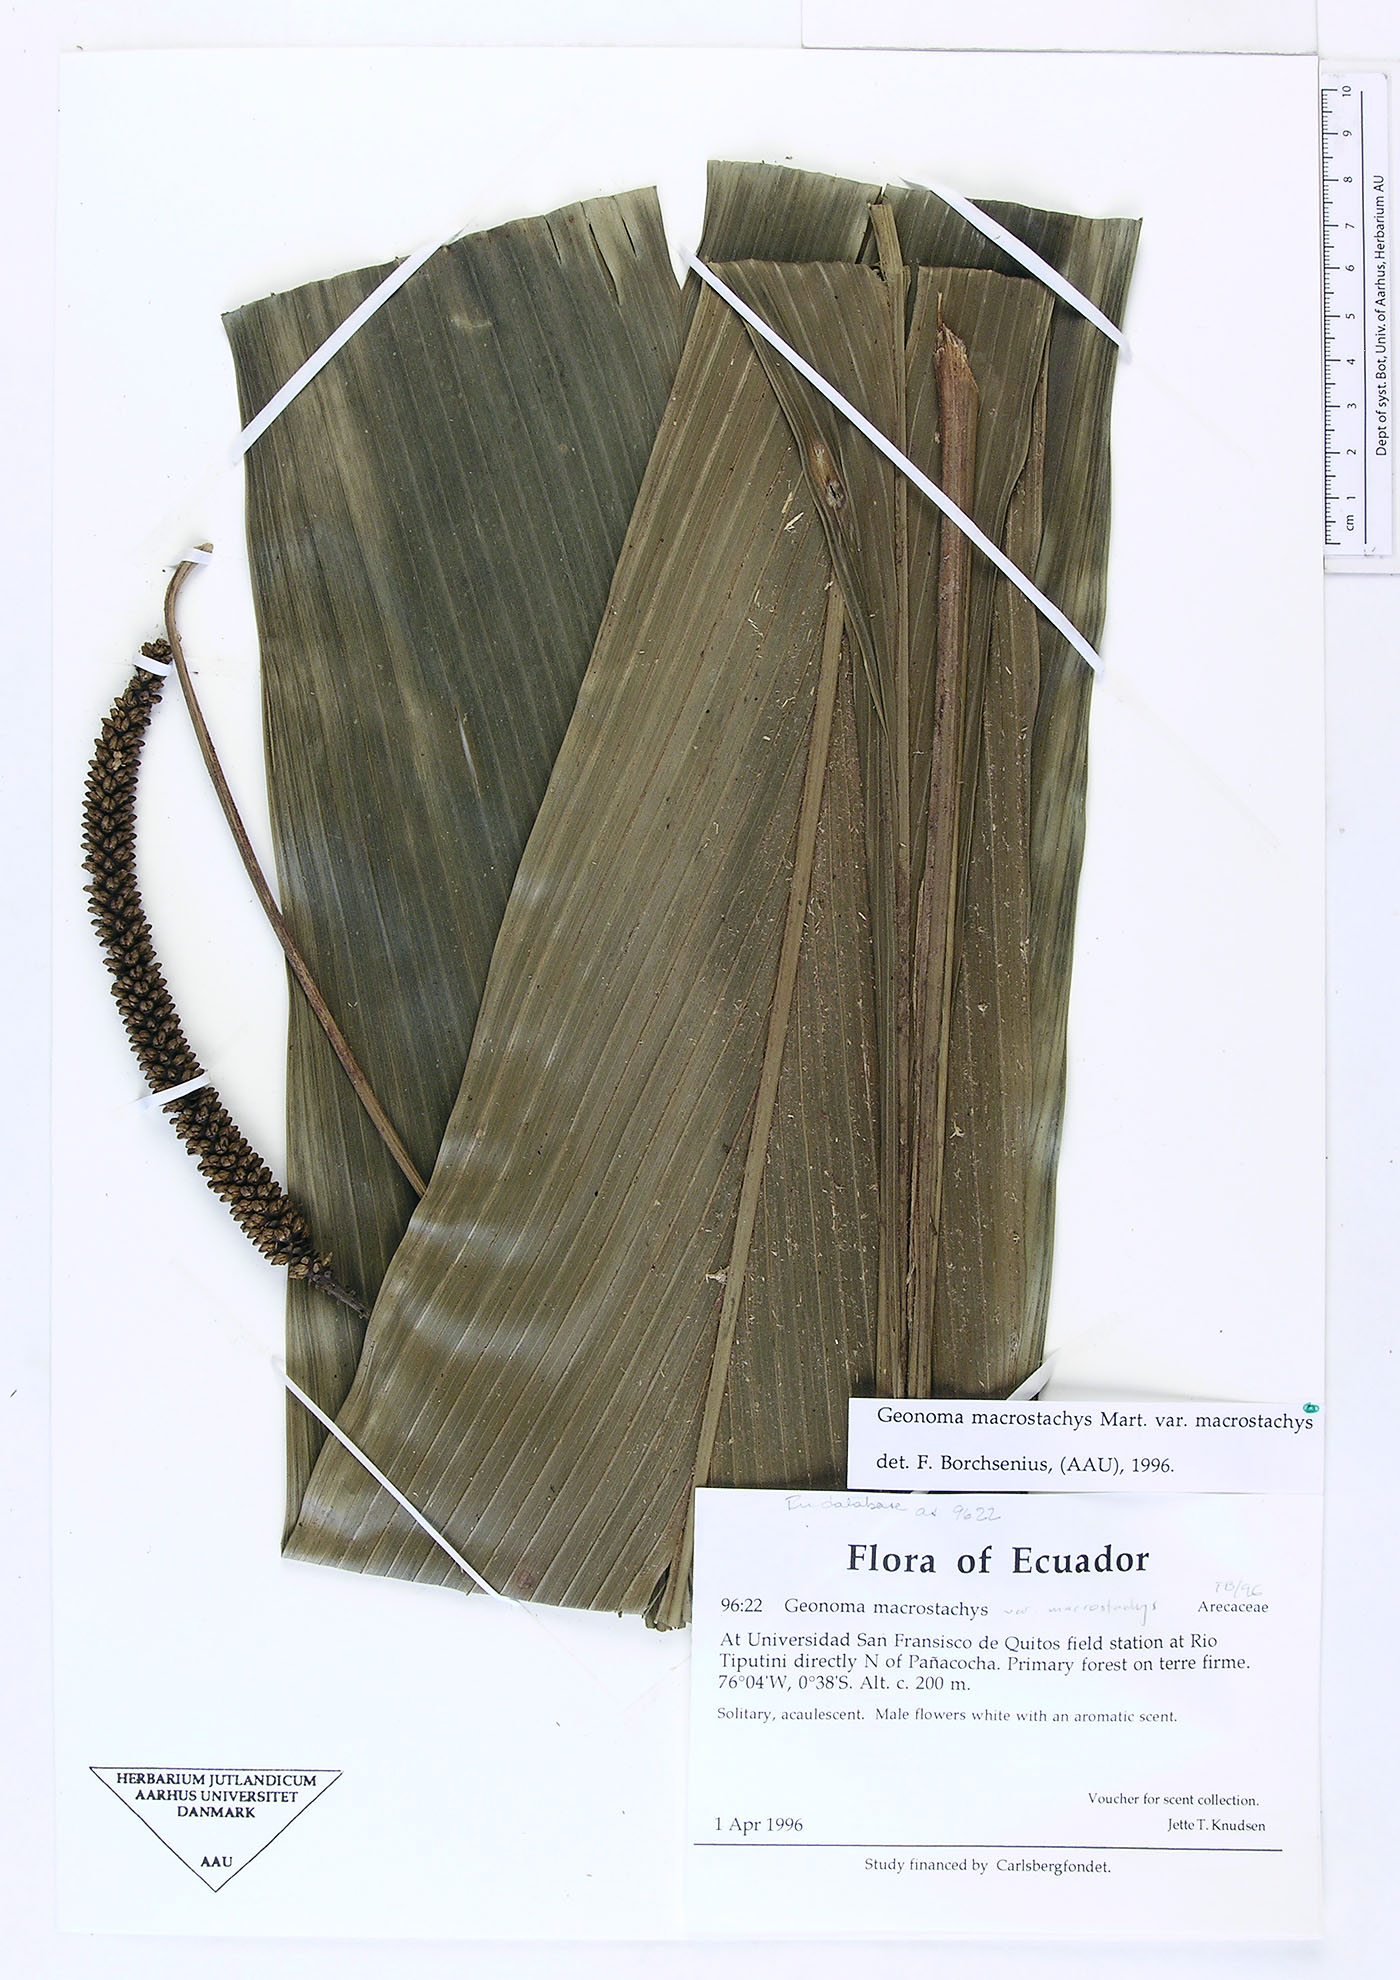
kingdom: Plantae
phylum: Tracheophyta
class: Liliopsida
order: Arecales
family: Arecaceae
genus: Geonoma
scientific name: Geonoma macrostachys
